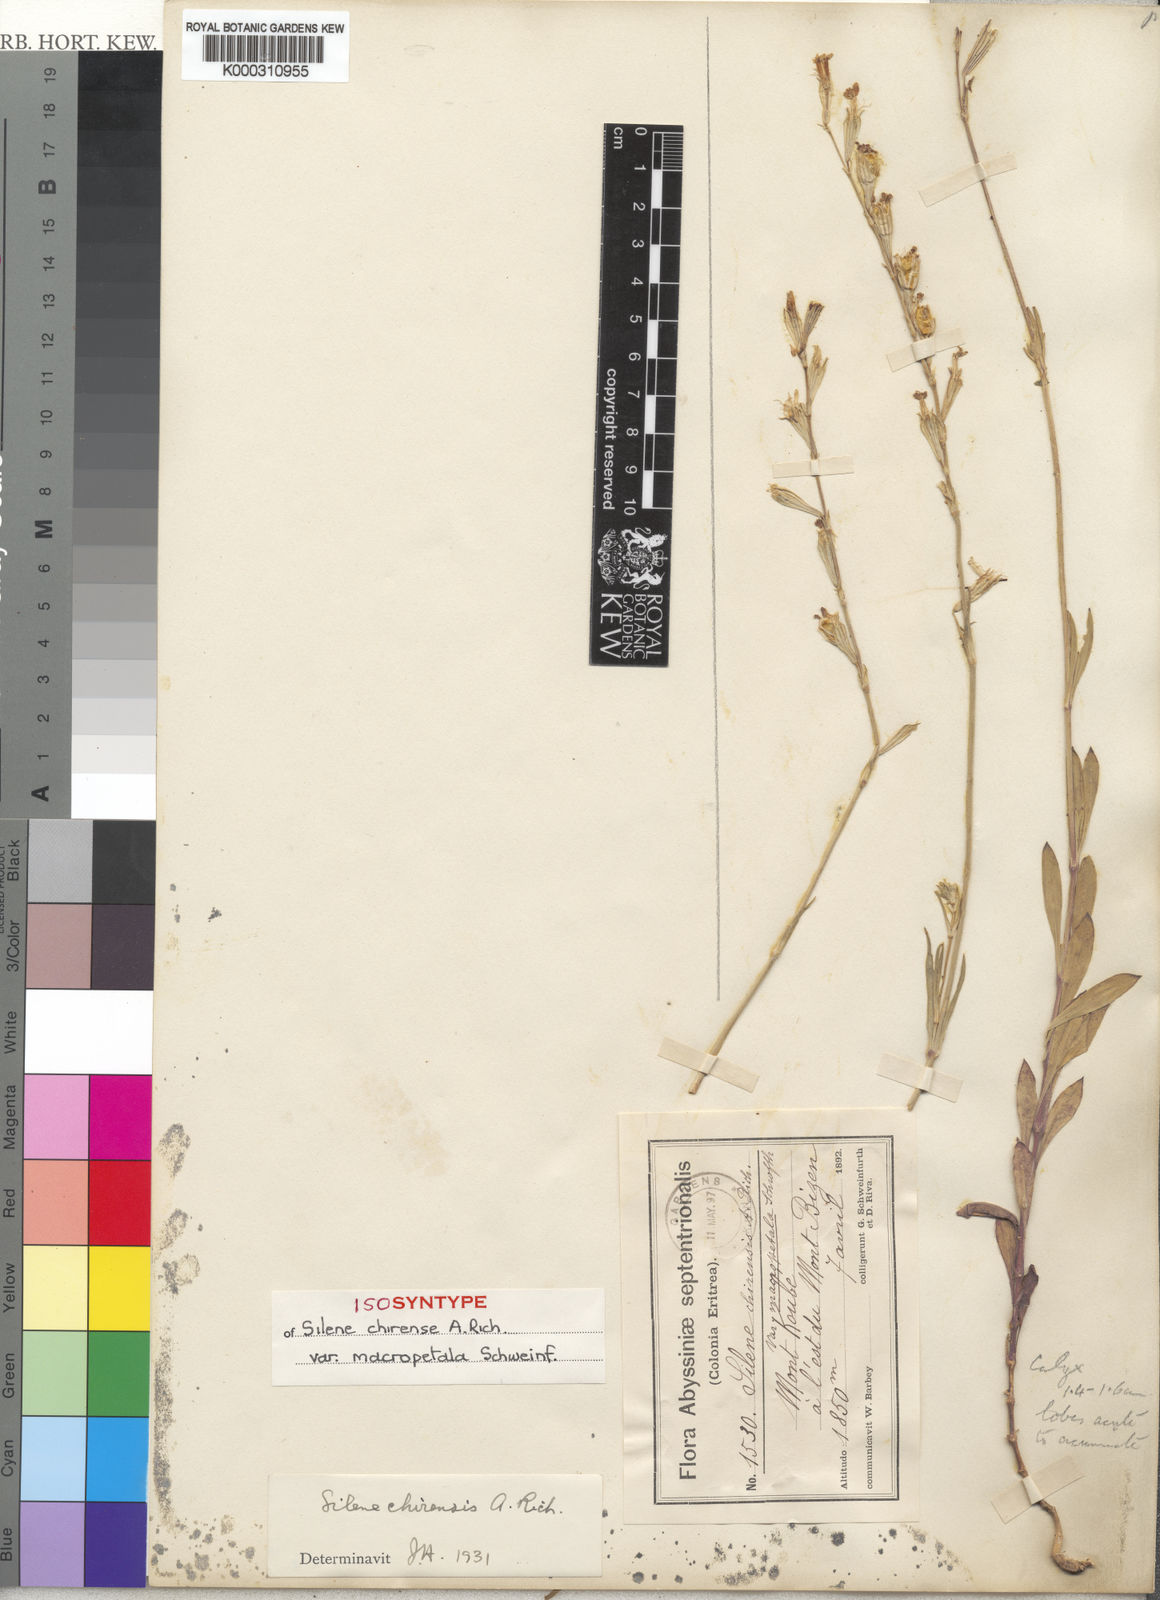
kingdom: Plantae
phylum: Tracheophyta
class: Magnoliopsida
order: Caryophyllales
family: Caryophyllaceae
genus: Silene
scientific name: Silene chirensis
